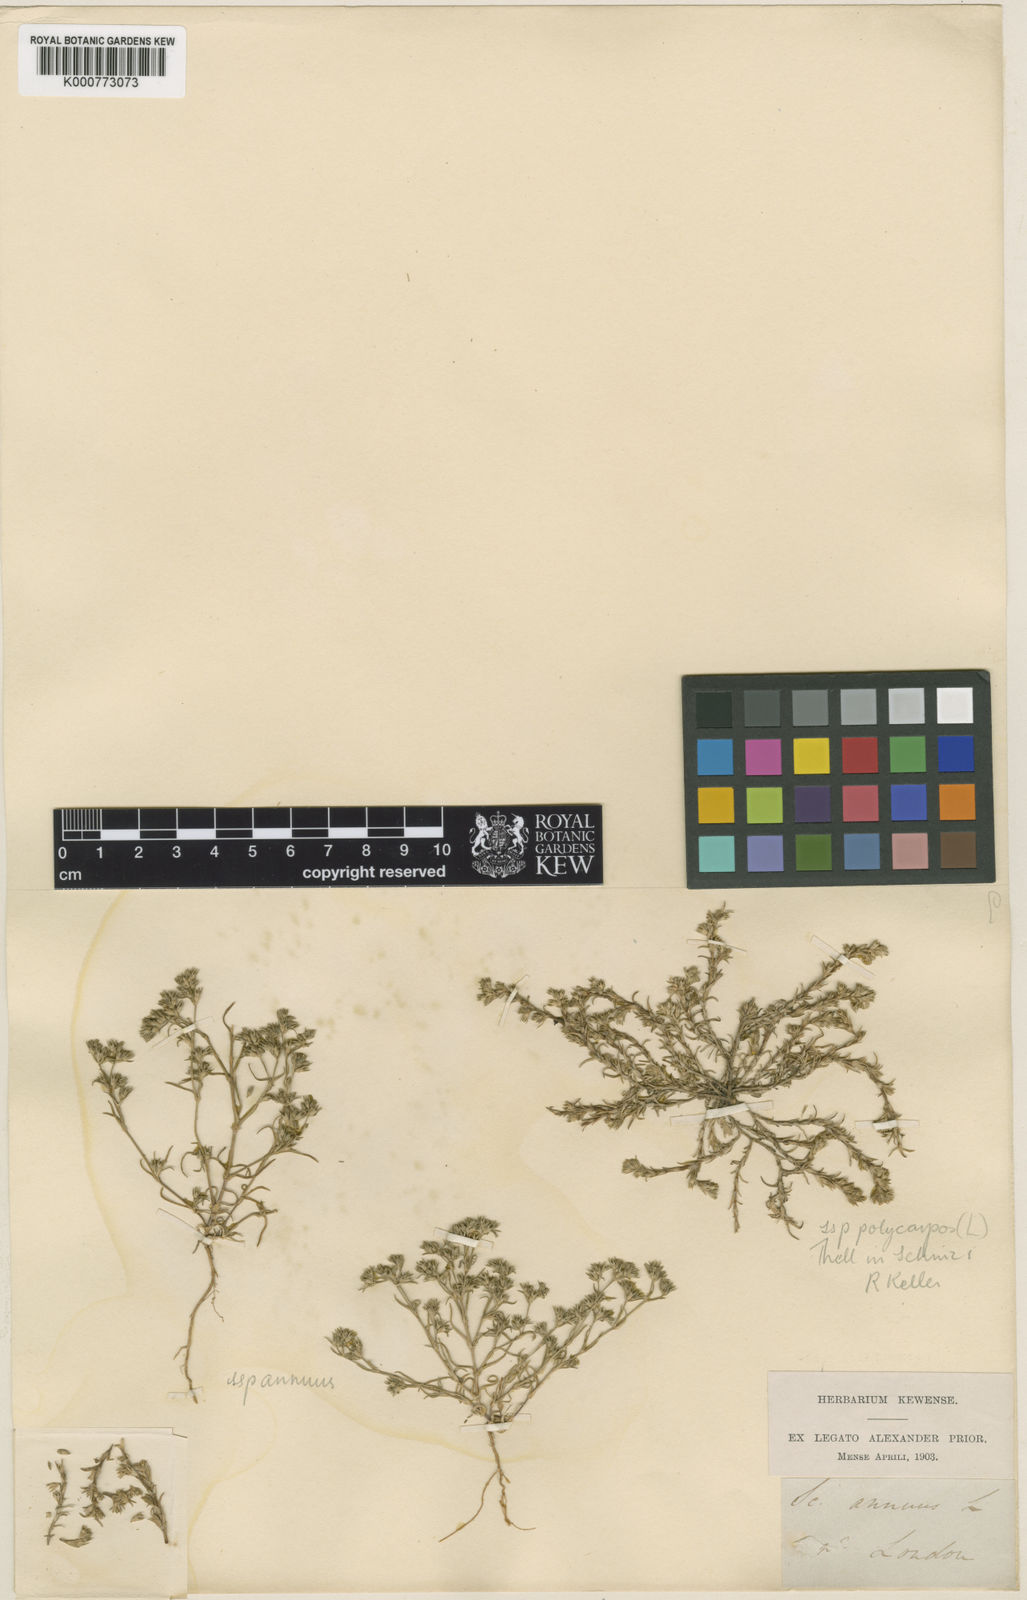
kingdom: Plantae
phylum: Tracheophyta
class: Magnoliopsida
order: Caryophyllales
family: Caryophyllaceae
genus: Scleranthus
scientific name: Scleranthus annuus
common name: Annual knawel
